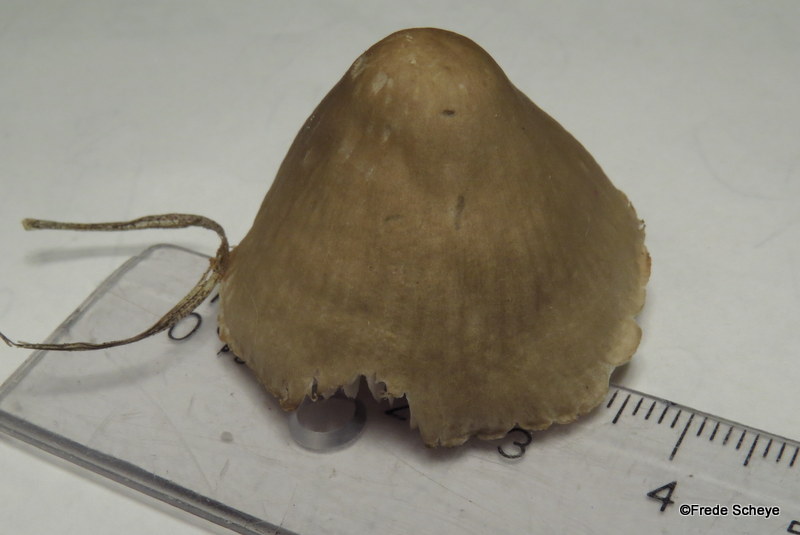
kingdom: Fungi
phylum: Basidiomycota
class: Agaricomycetes
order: Agaricales
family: Mycenaceae
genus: Mycena
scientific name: Mycena galericulata
